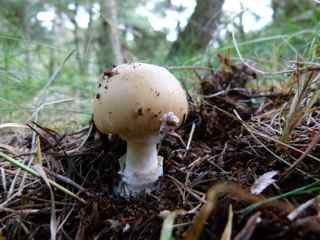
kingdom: Fungi
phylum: Basidiomycota
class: Agaricomycetes
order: Agaricales
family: Amanitaceae
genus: Amanita
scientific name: Amanita gemmata
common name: okkergul fluesvamp
